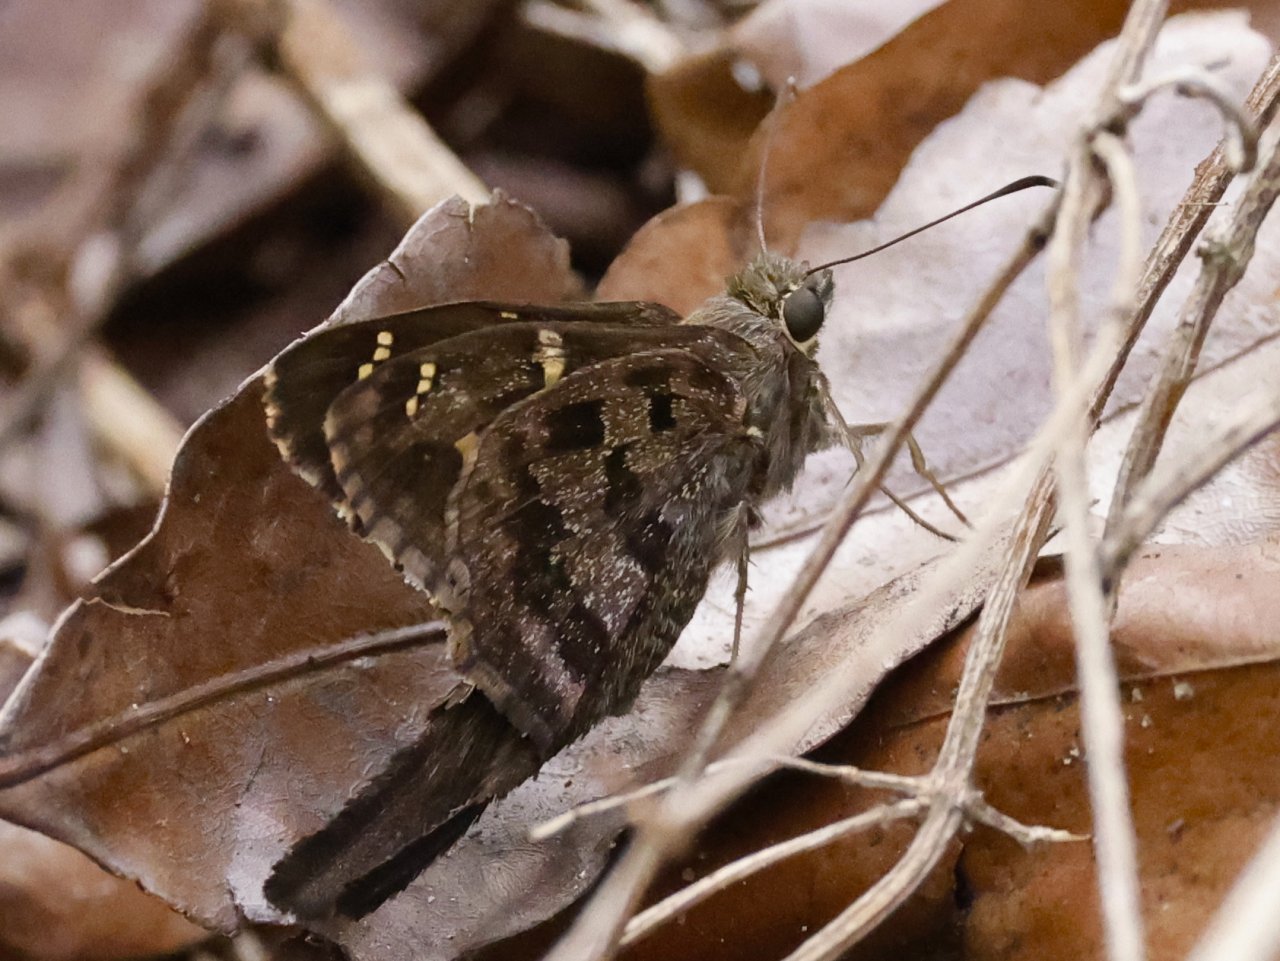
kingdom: Animalia
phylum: Arthropoda
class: Insecta
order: Lepidoptera
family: Hesperiidae
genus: Urbanus
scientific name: Urbanus dorantes
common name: Dorantes Longtail
